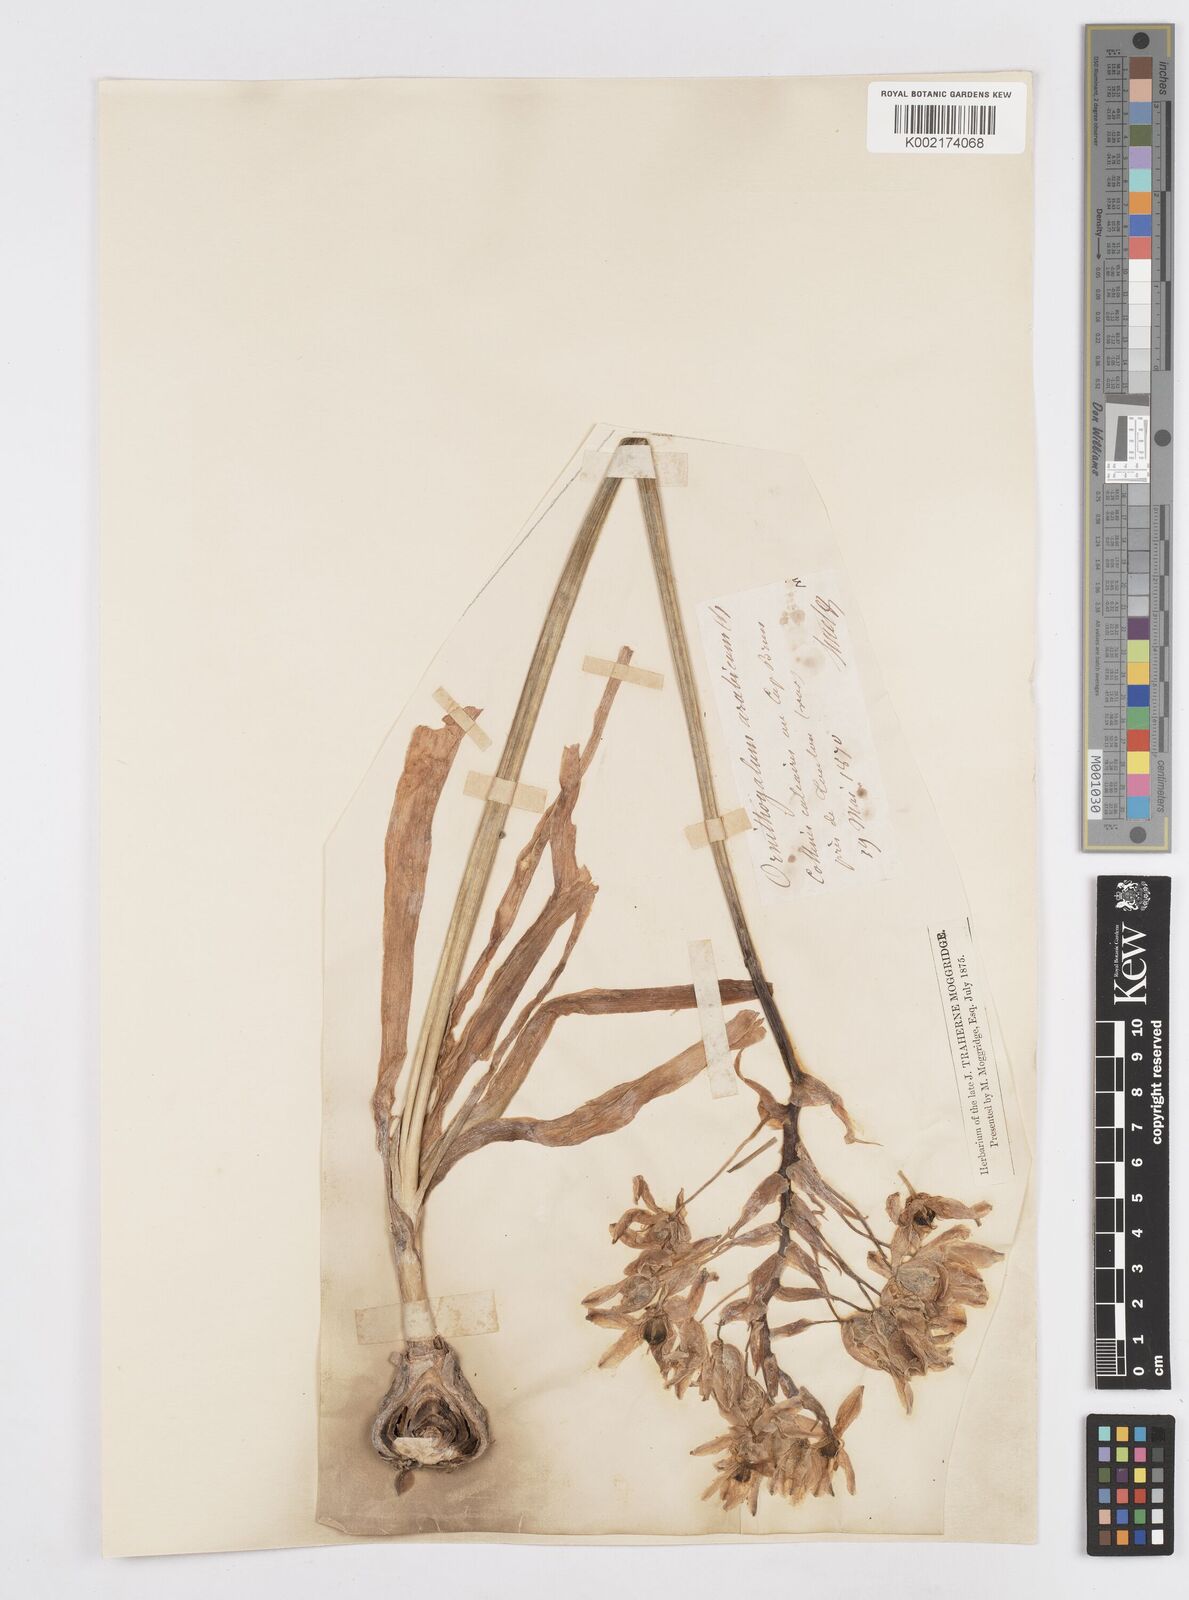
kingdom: Plantae
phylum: Tracheophyta
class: Liliopsida
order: Asparagales
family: Asparagaceae
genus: Ornithogalum
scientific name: Ornithogalum arabicum
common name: Arabian starflower
